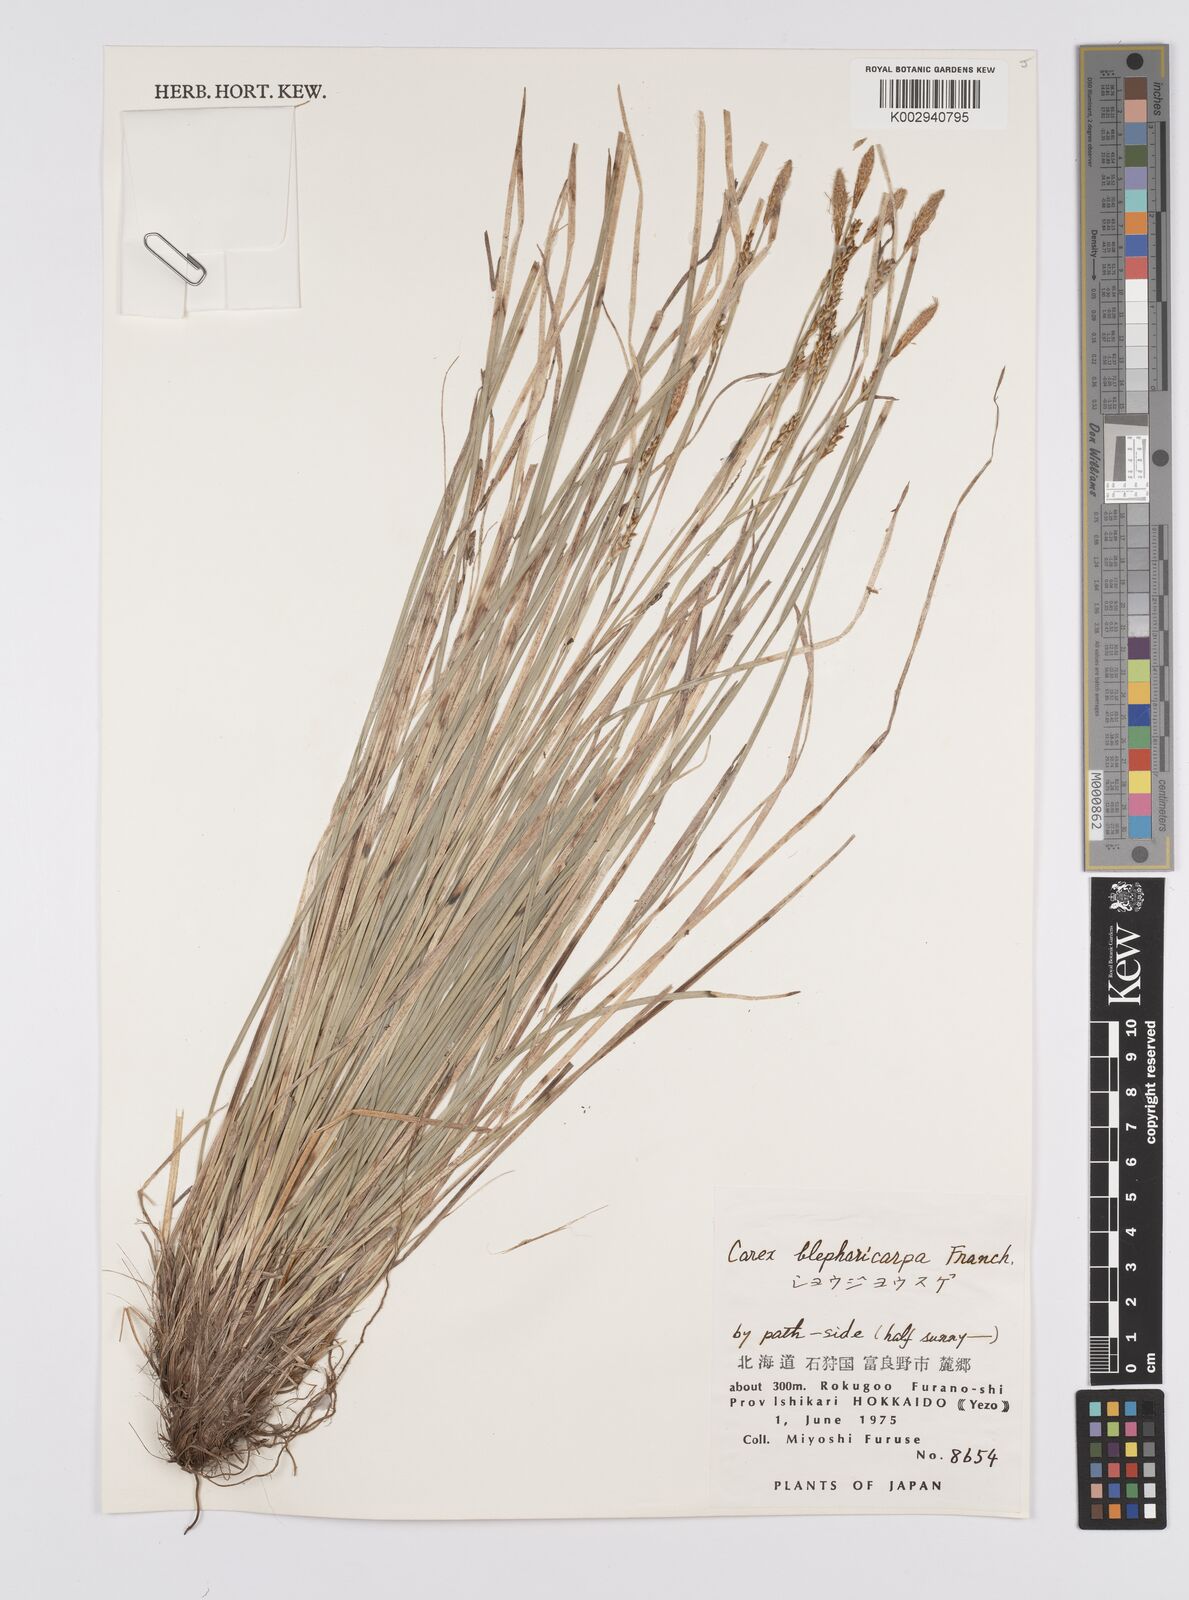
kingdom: Plantae
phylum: Tracheophyta
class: Liliopsida
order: Poales
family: Cyperaceae
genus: Carex
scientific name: Carex blepharicarpa
